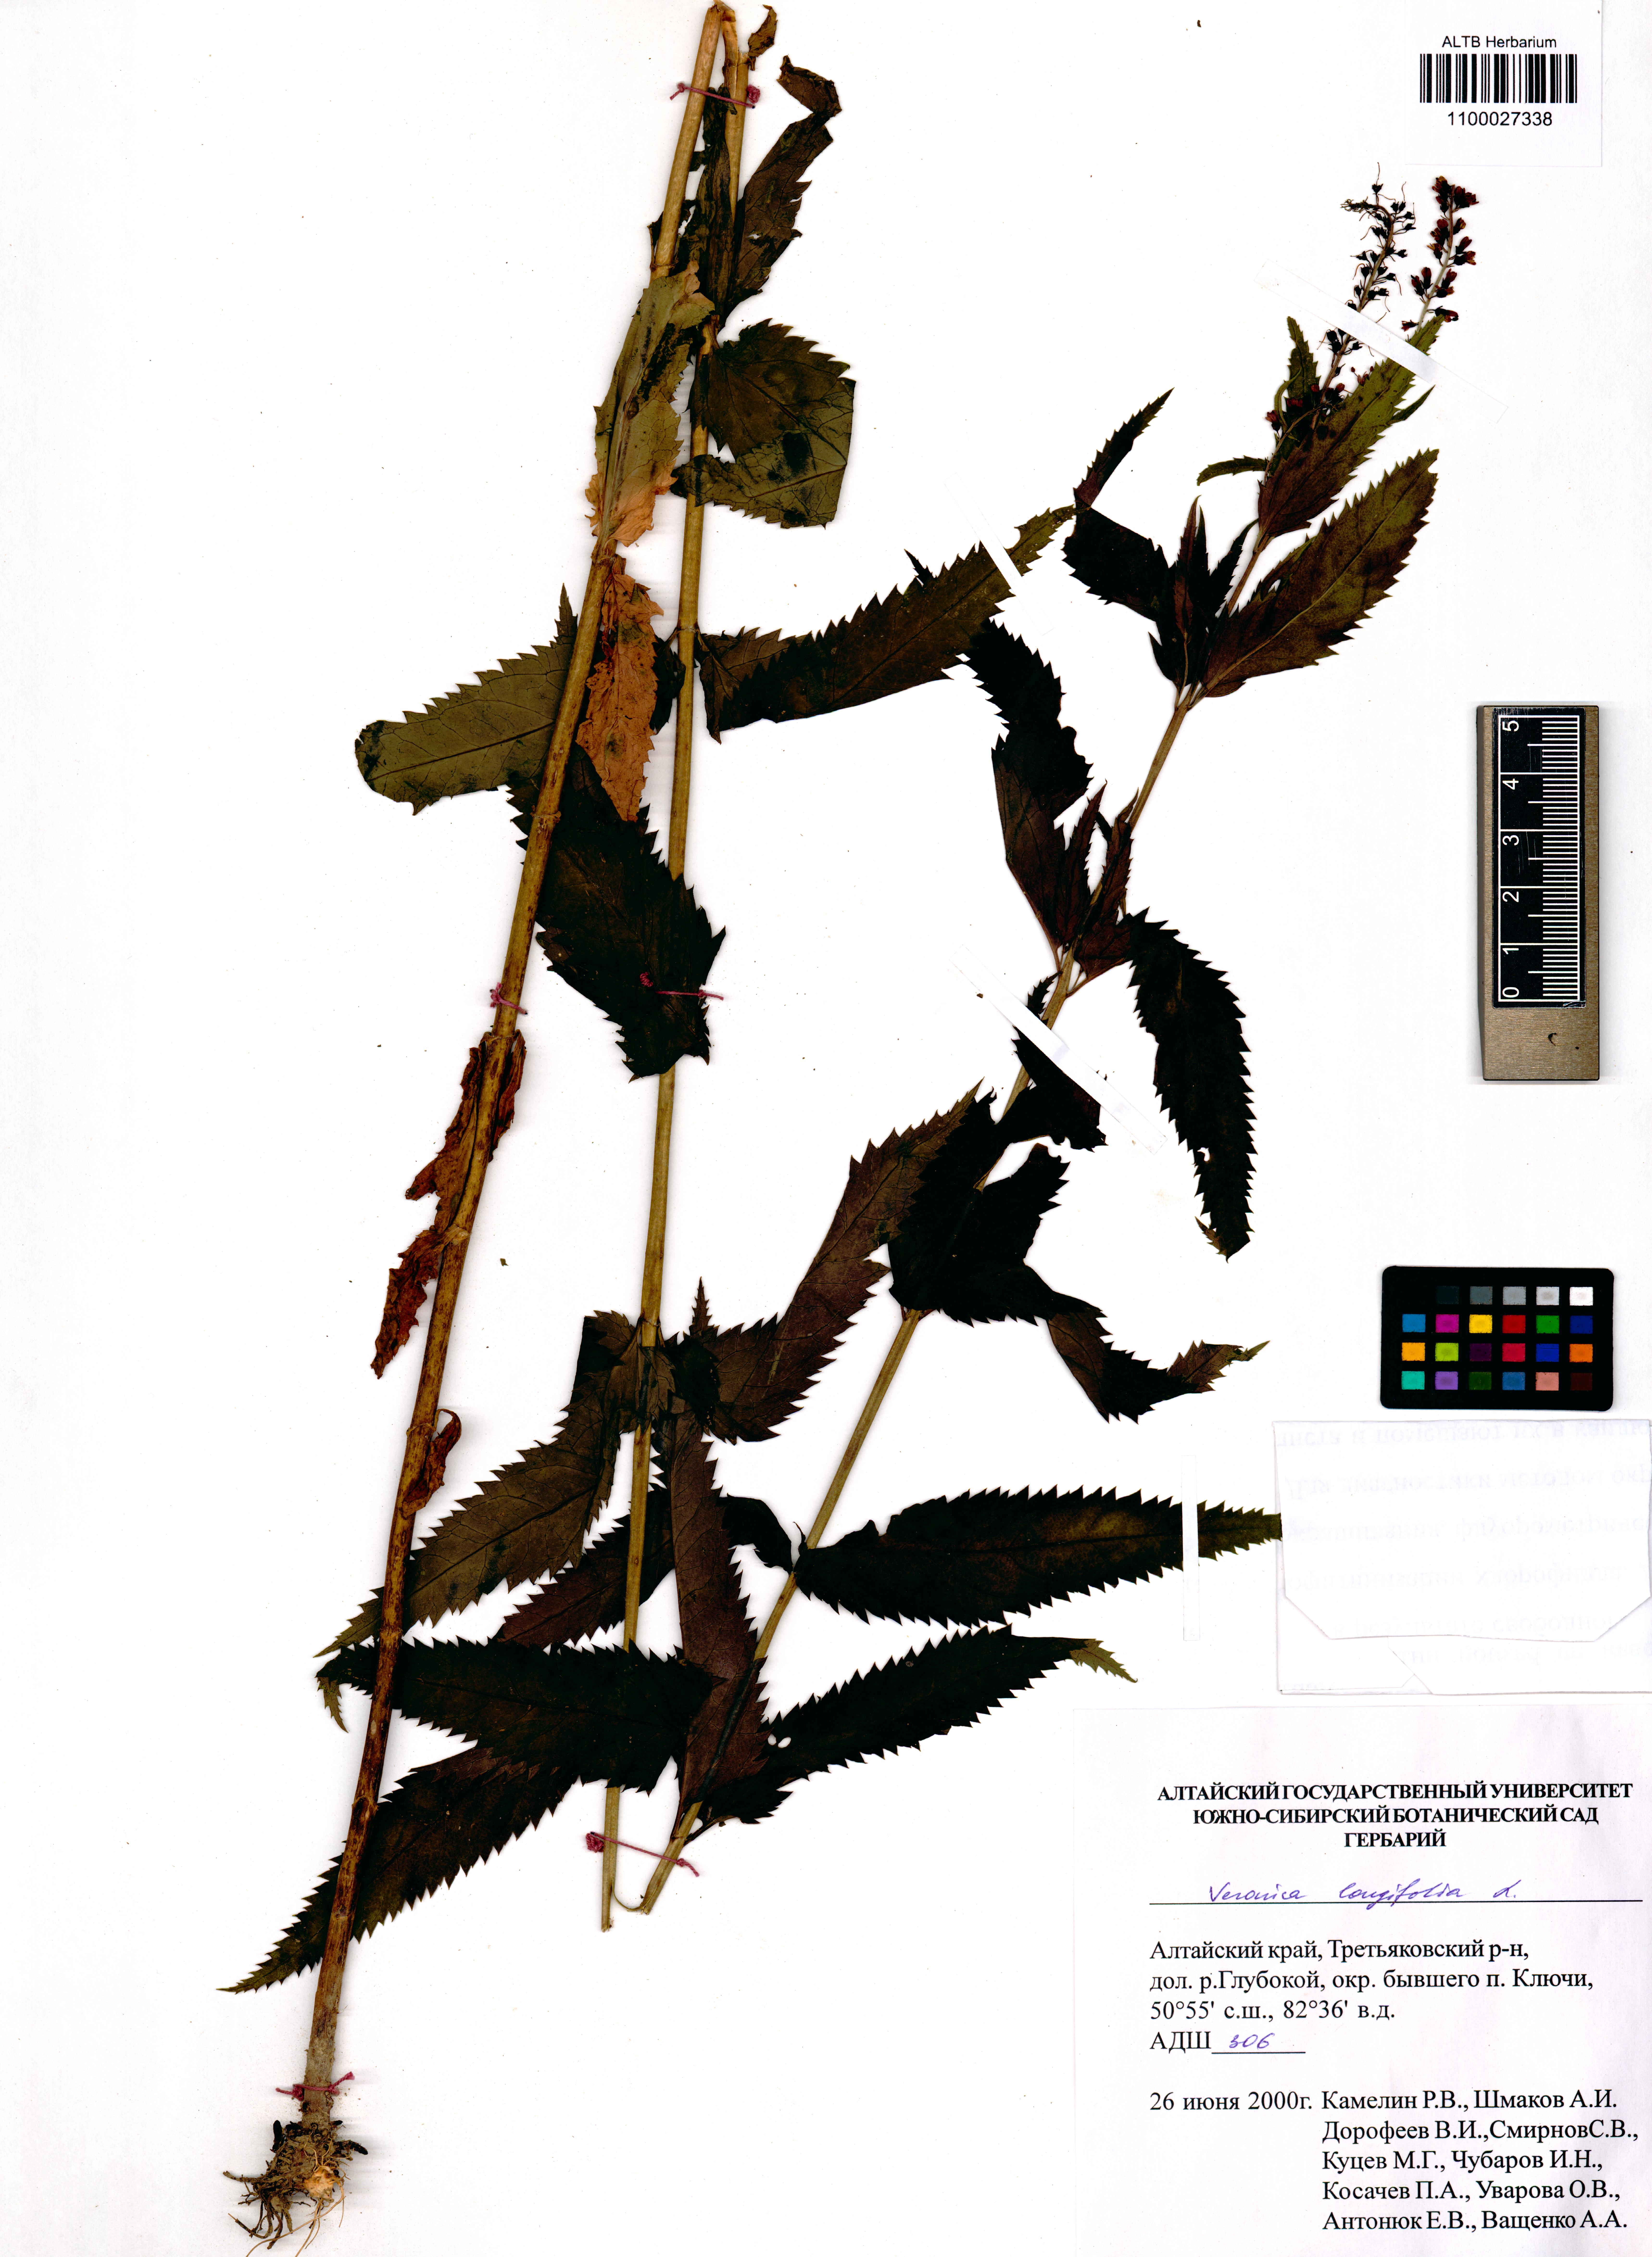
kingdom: Plantae
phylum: Tracheophyta
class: Magnoliopsida
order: Lamiales
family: Plantaginaceae
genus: Veronica
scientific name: Veronica longifolia
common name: Garden speedwell
